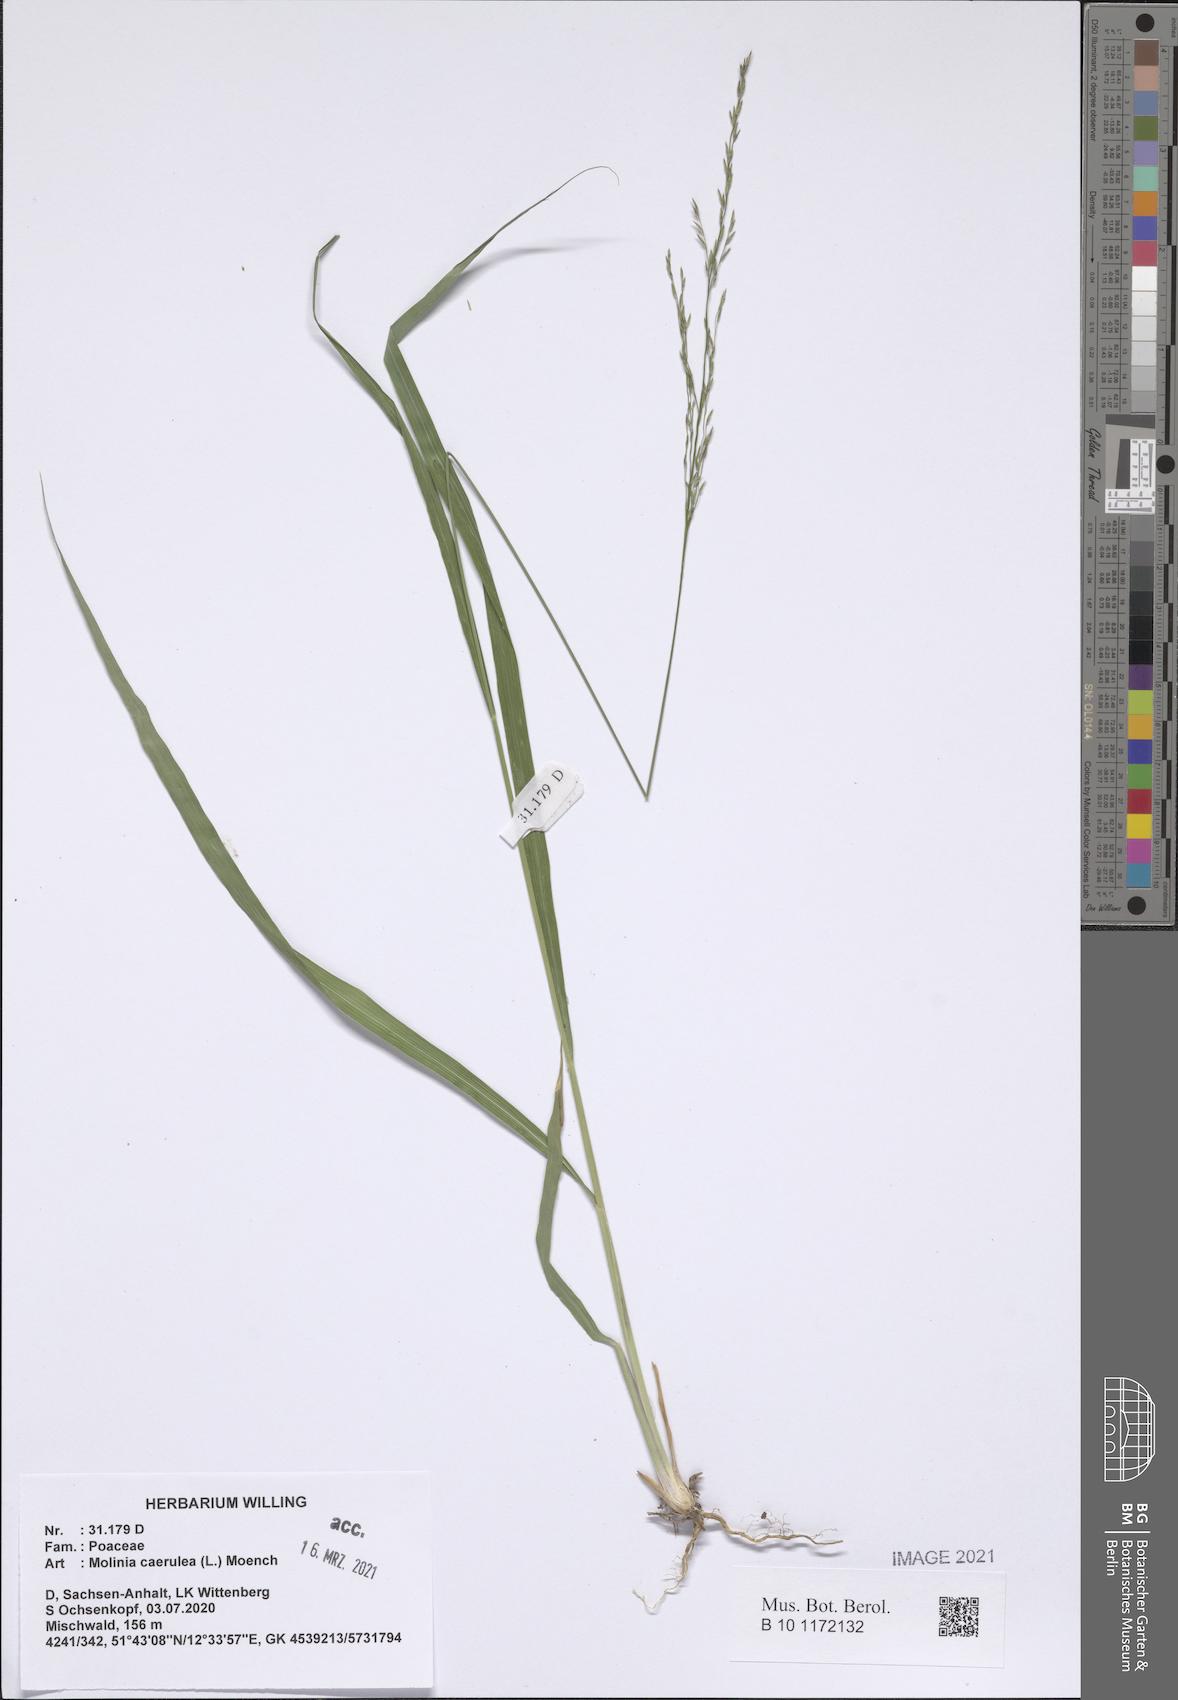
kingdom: Plantae
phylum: Tracheophyta
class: Liliopsida
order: Poales
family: Poaceae
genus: Molinia
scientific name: Molinia caerulea
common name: Purple moor-grass
